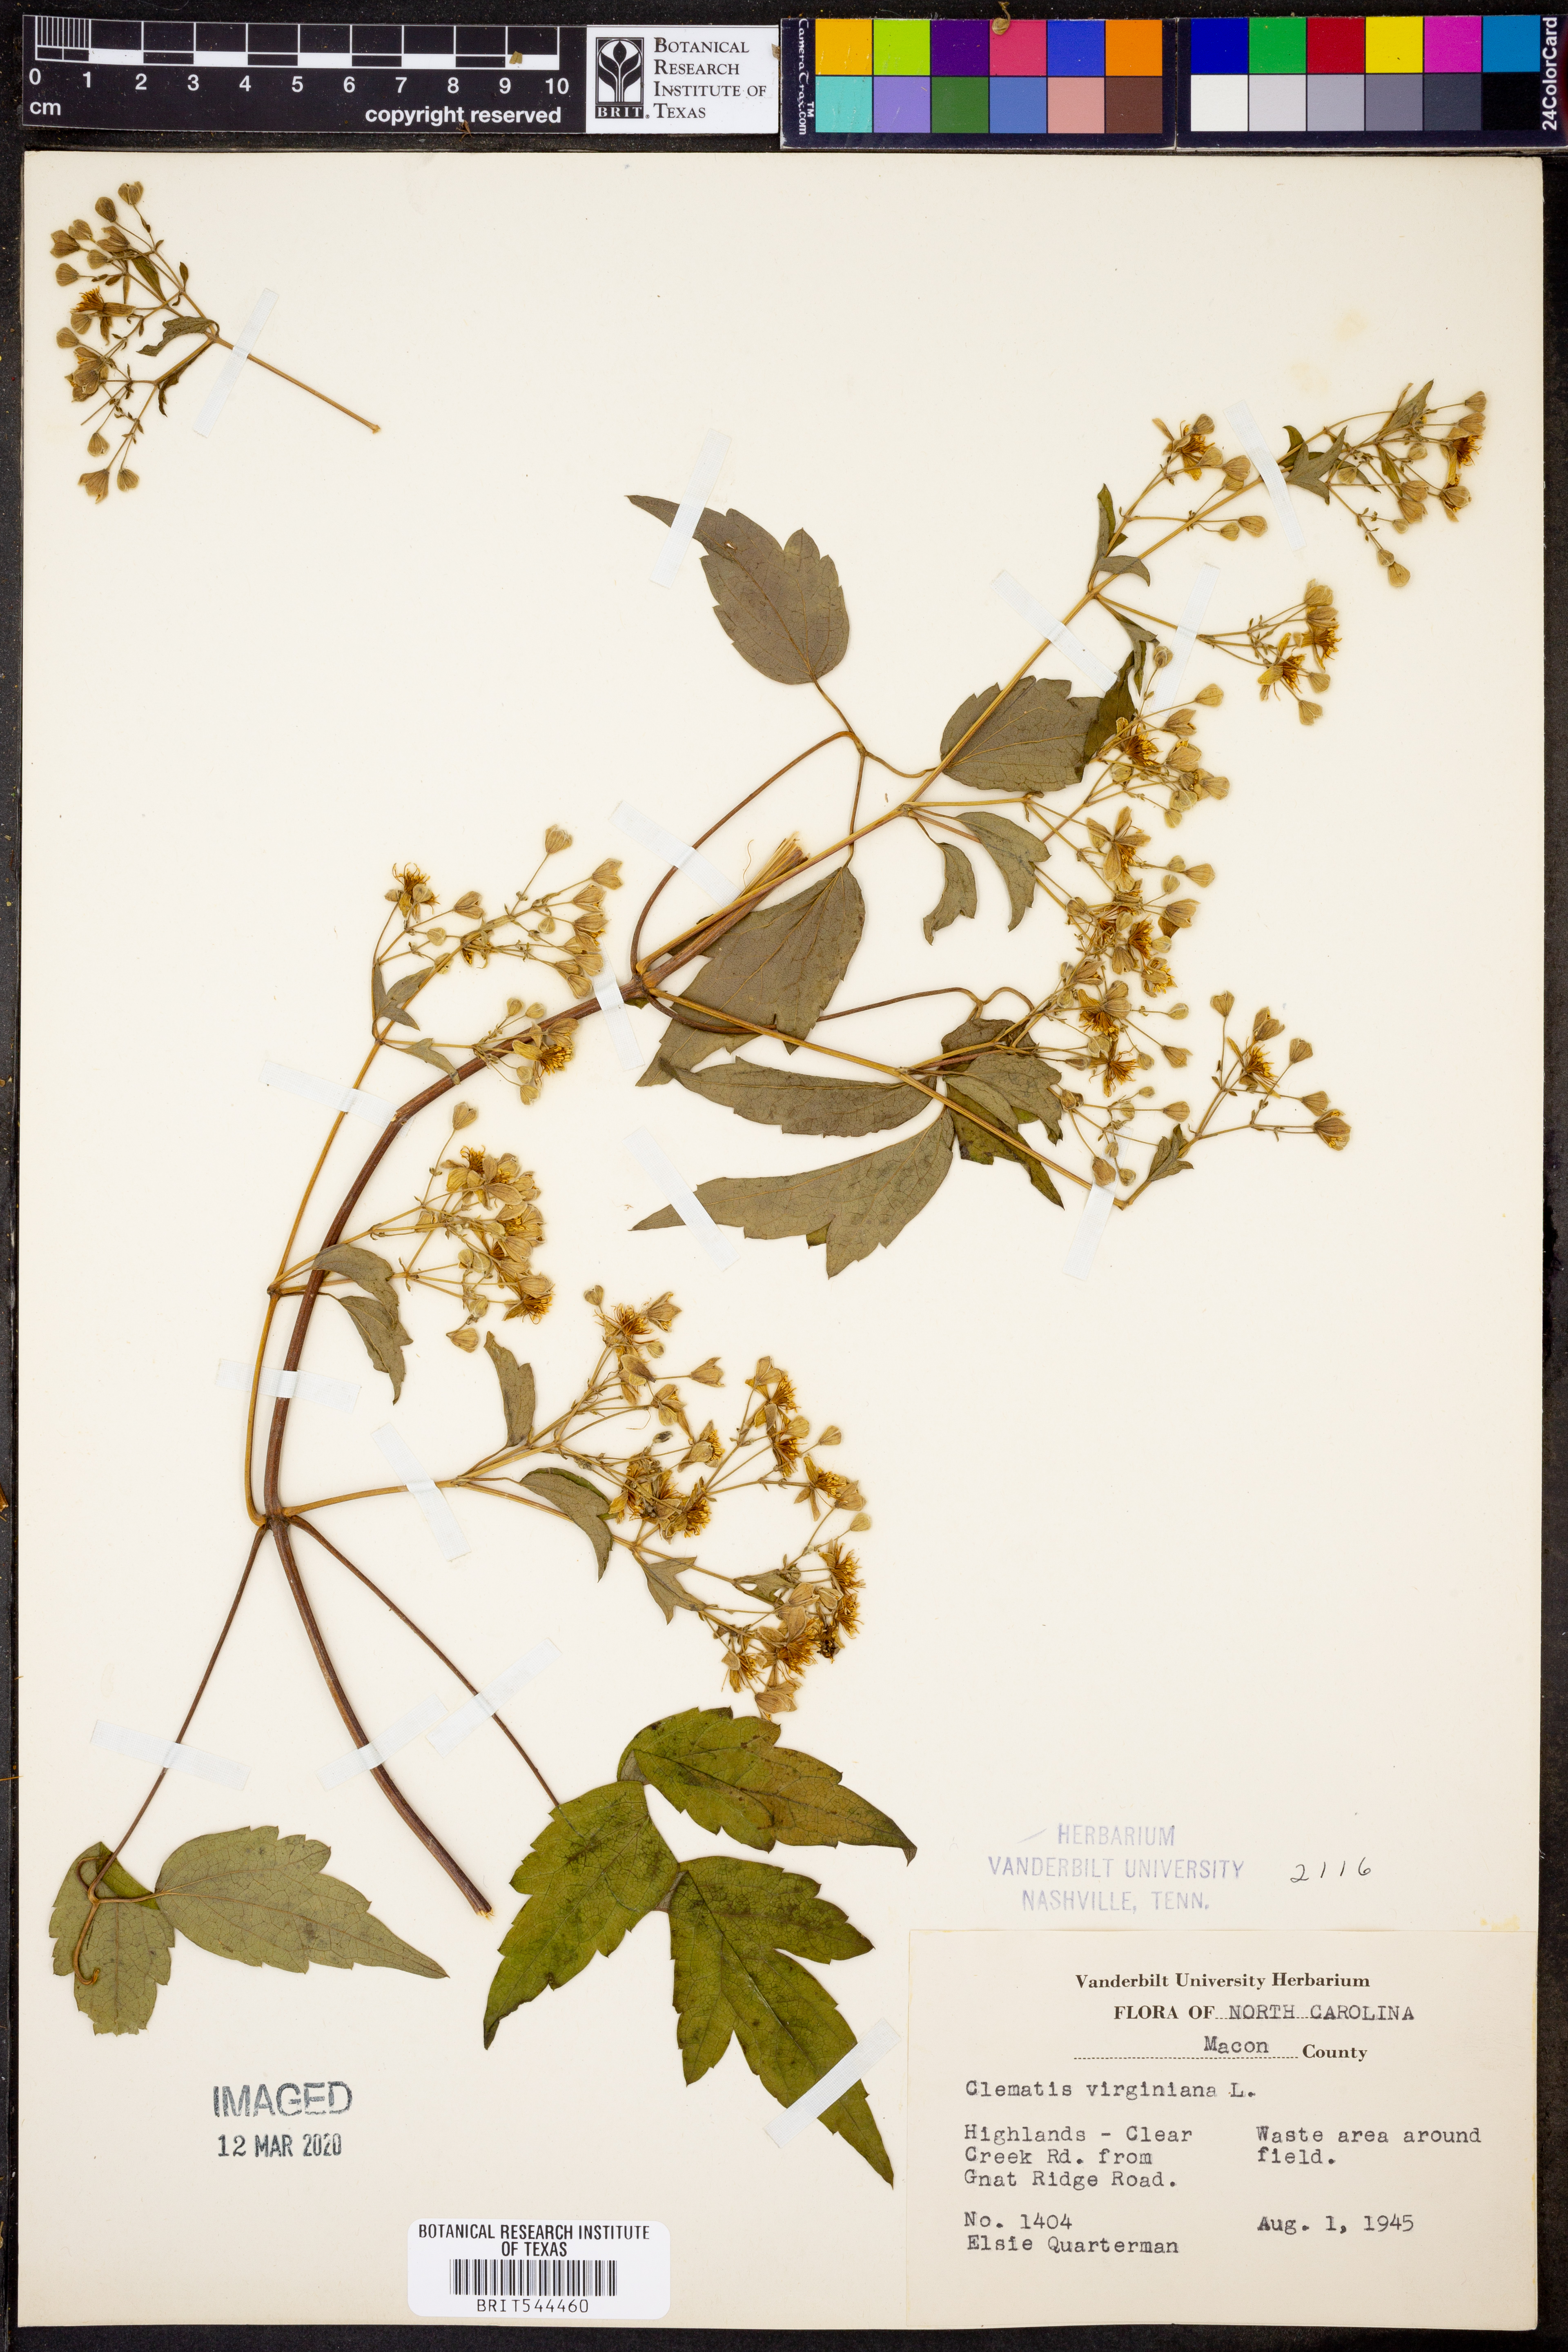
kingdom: Plantae
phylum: Tracheophyta
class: Magnoliopsida
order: Ranunculales
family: Ranunculaceae
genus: Clematis
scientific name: Clematis virginiana
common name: Virgin's-bower
